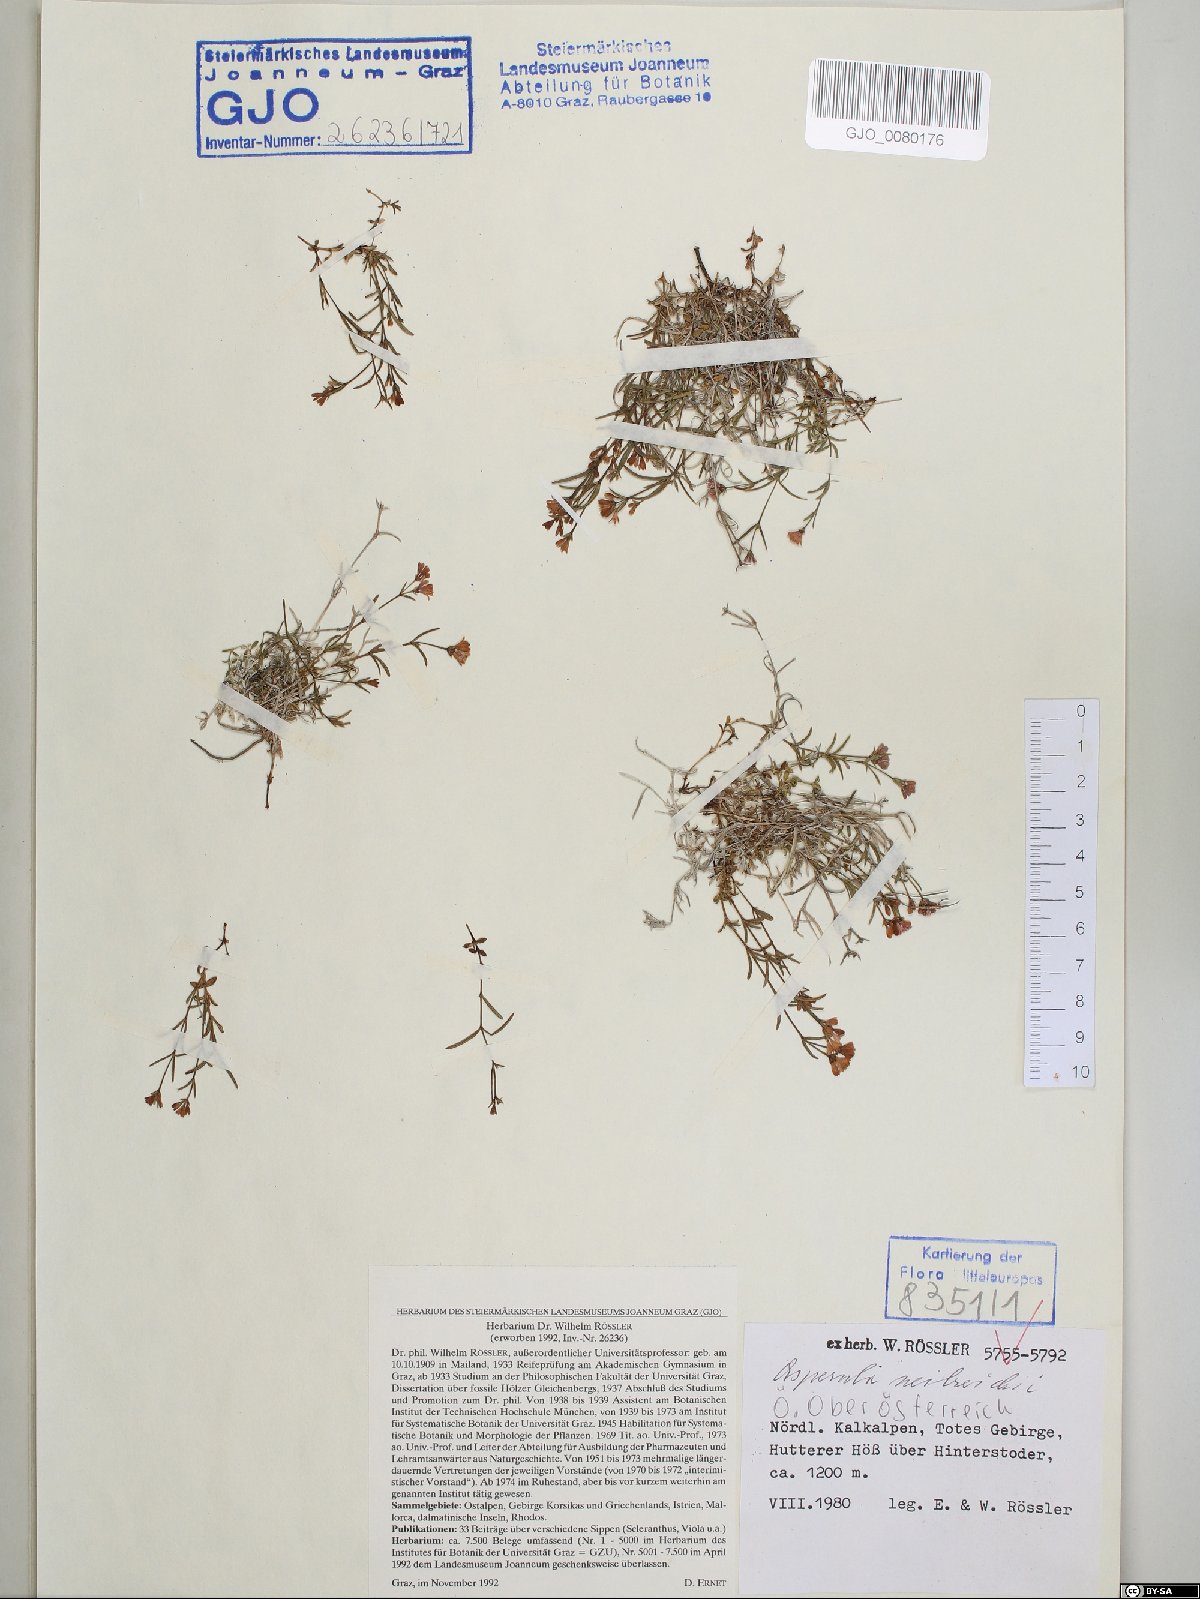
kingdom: Plantae
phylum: Tracheophyta
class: Magnoliopsida
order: Gentianales
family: Rubiaceae
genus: Cynanchica
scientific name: Cynanchica neilreichii
